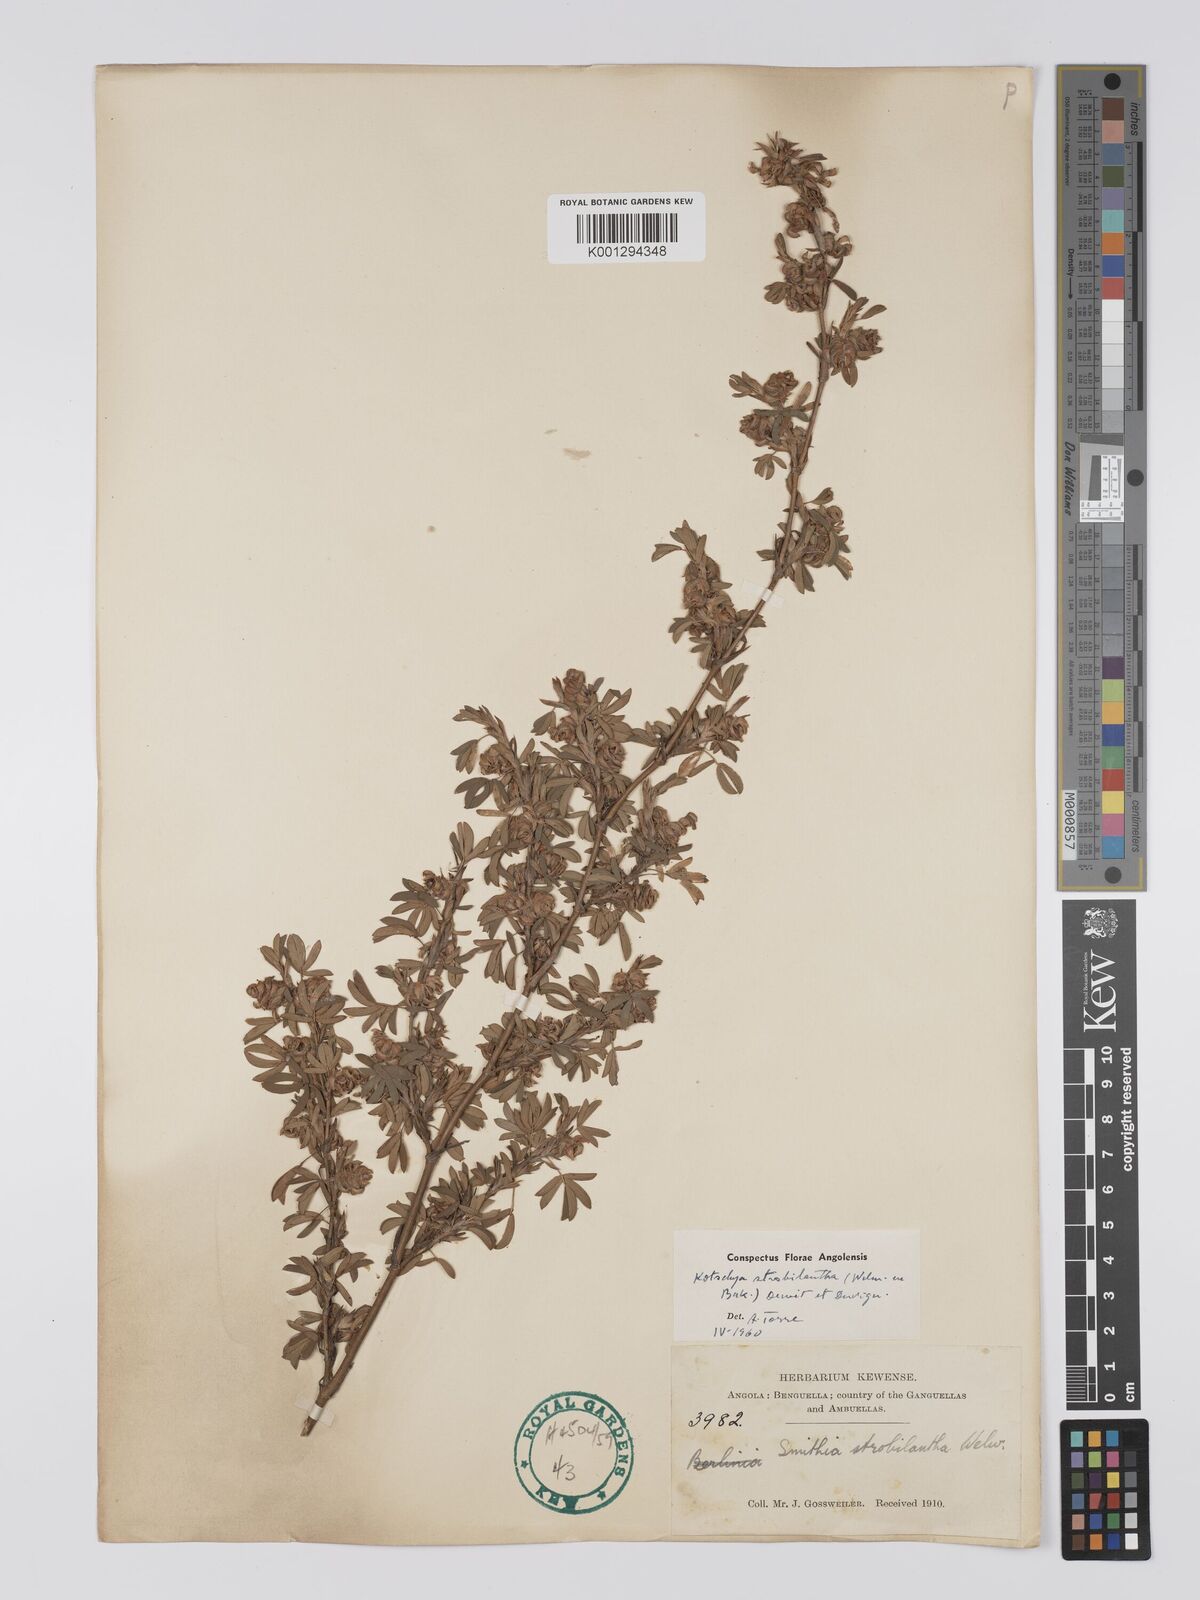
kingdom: Plantae
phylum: Tracheophyta
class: Magnoliopsida
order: Fabales
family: Fabaceae
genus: Kotschya
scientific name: Kotschya strobilantha
